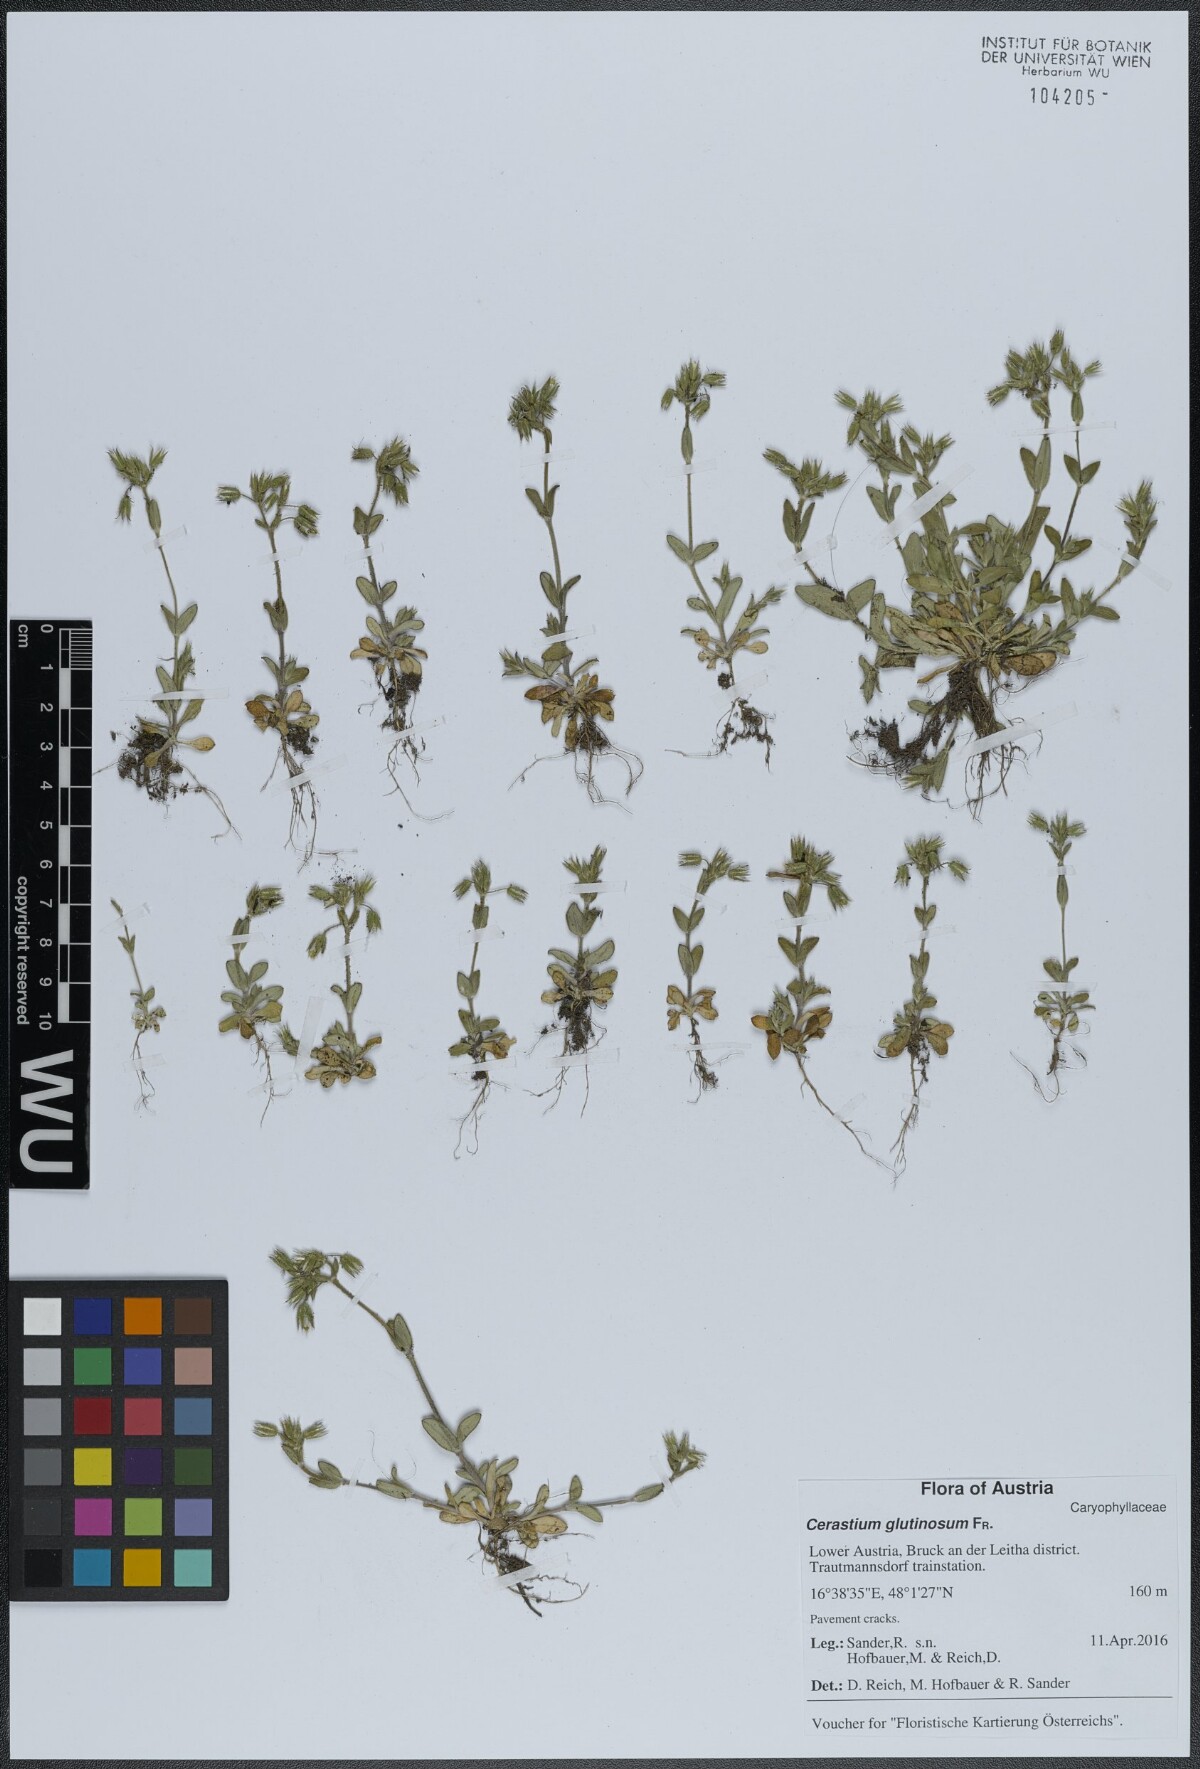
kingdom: Plantae
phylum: Tracheophyta
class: Magnoliopsida
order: Caryophyllales
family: Caryophyllaceae
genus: Cerastium
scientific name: Cerastium glutinosum
